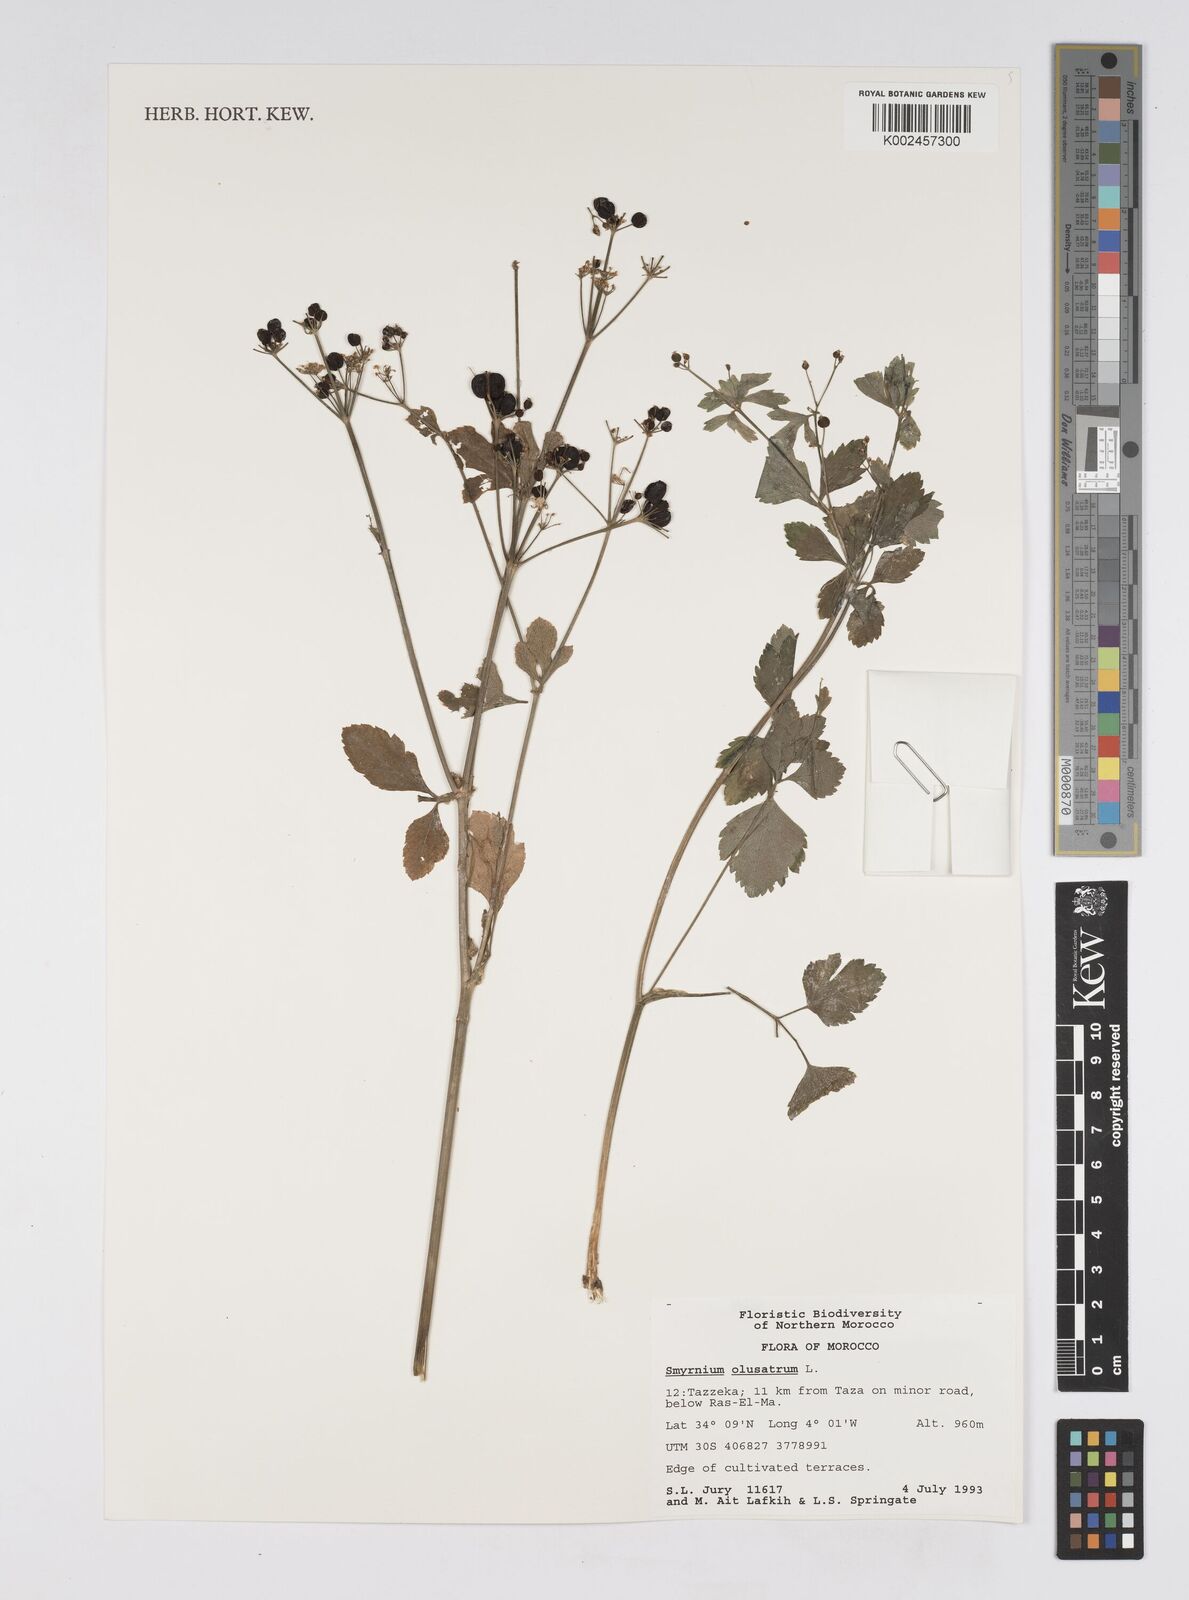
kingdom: Plantae
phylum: Tracheophyta
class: Magnoliopsida
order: Apiales
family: Apiaceae
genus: Smyrnium
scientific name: Smyrnium olusatrum
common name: Alexanders
